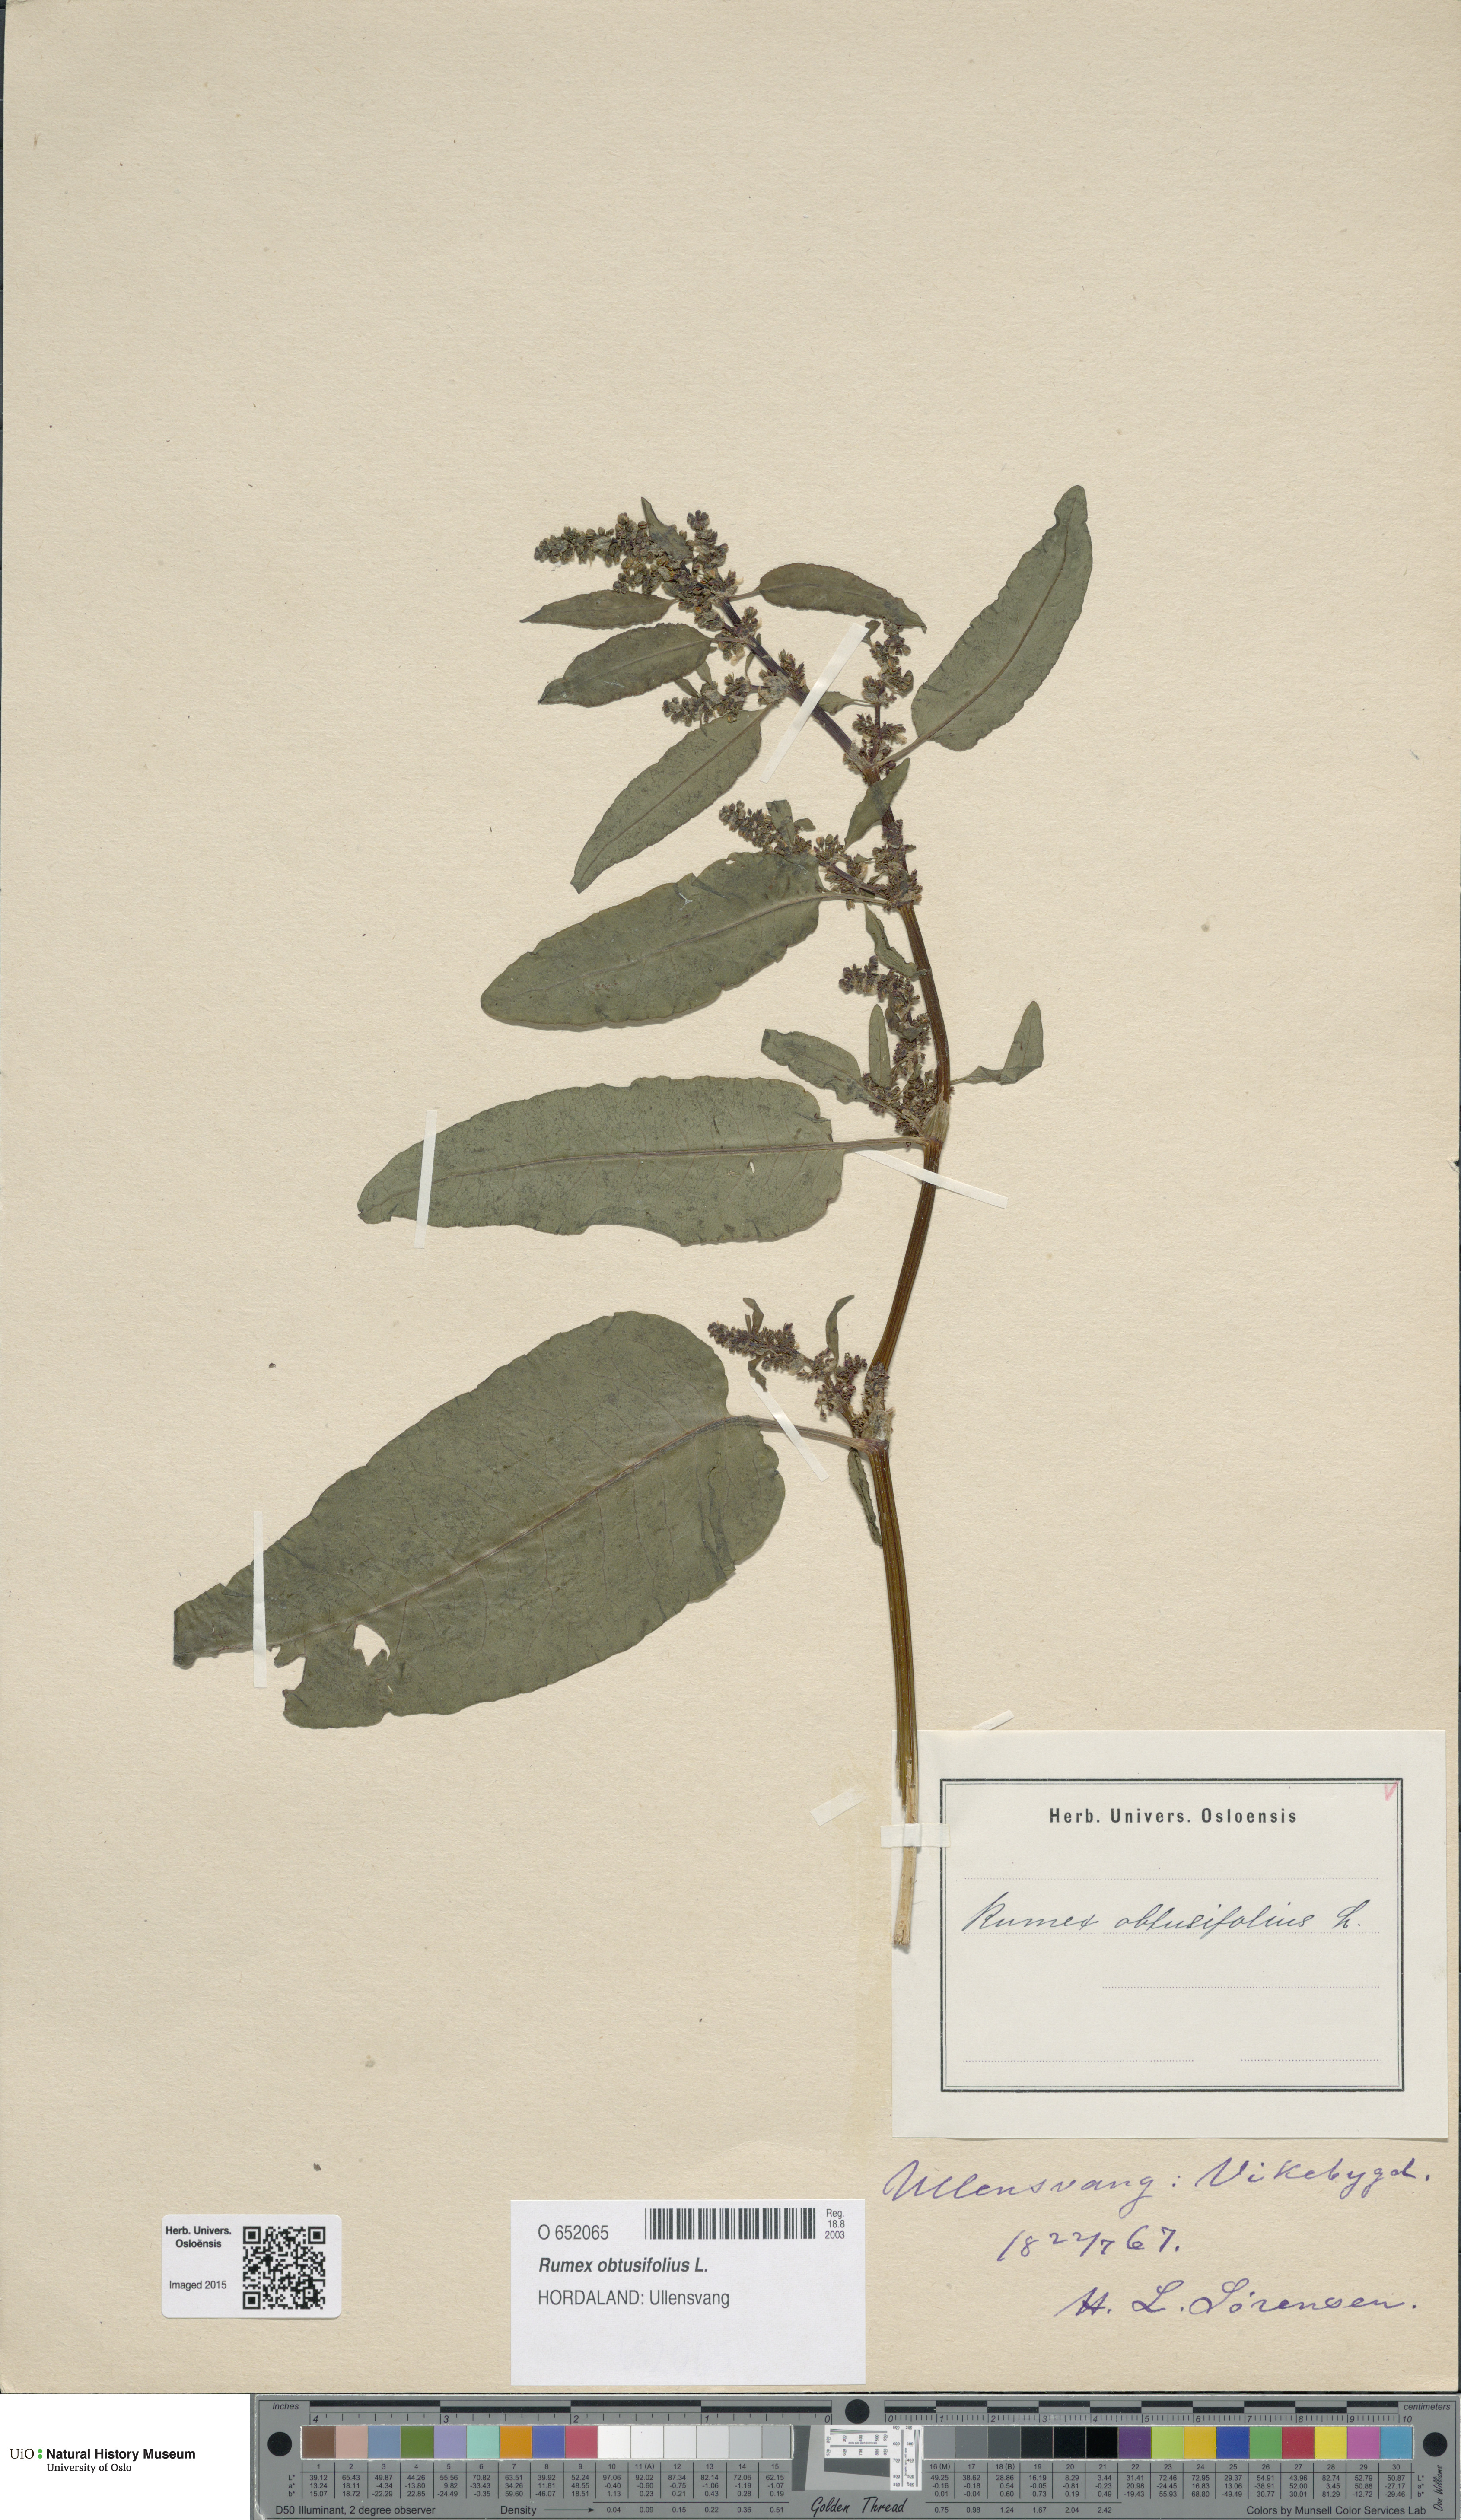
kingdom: Plantae
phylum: Tracheophyta
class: Magnoliopsida
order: Caryophyllales
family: Polygonaceae
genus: Rumex
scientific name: Rumex obtusifolius
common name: Bitter dock
